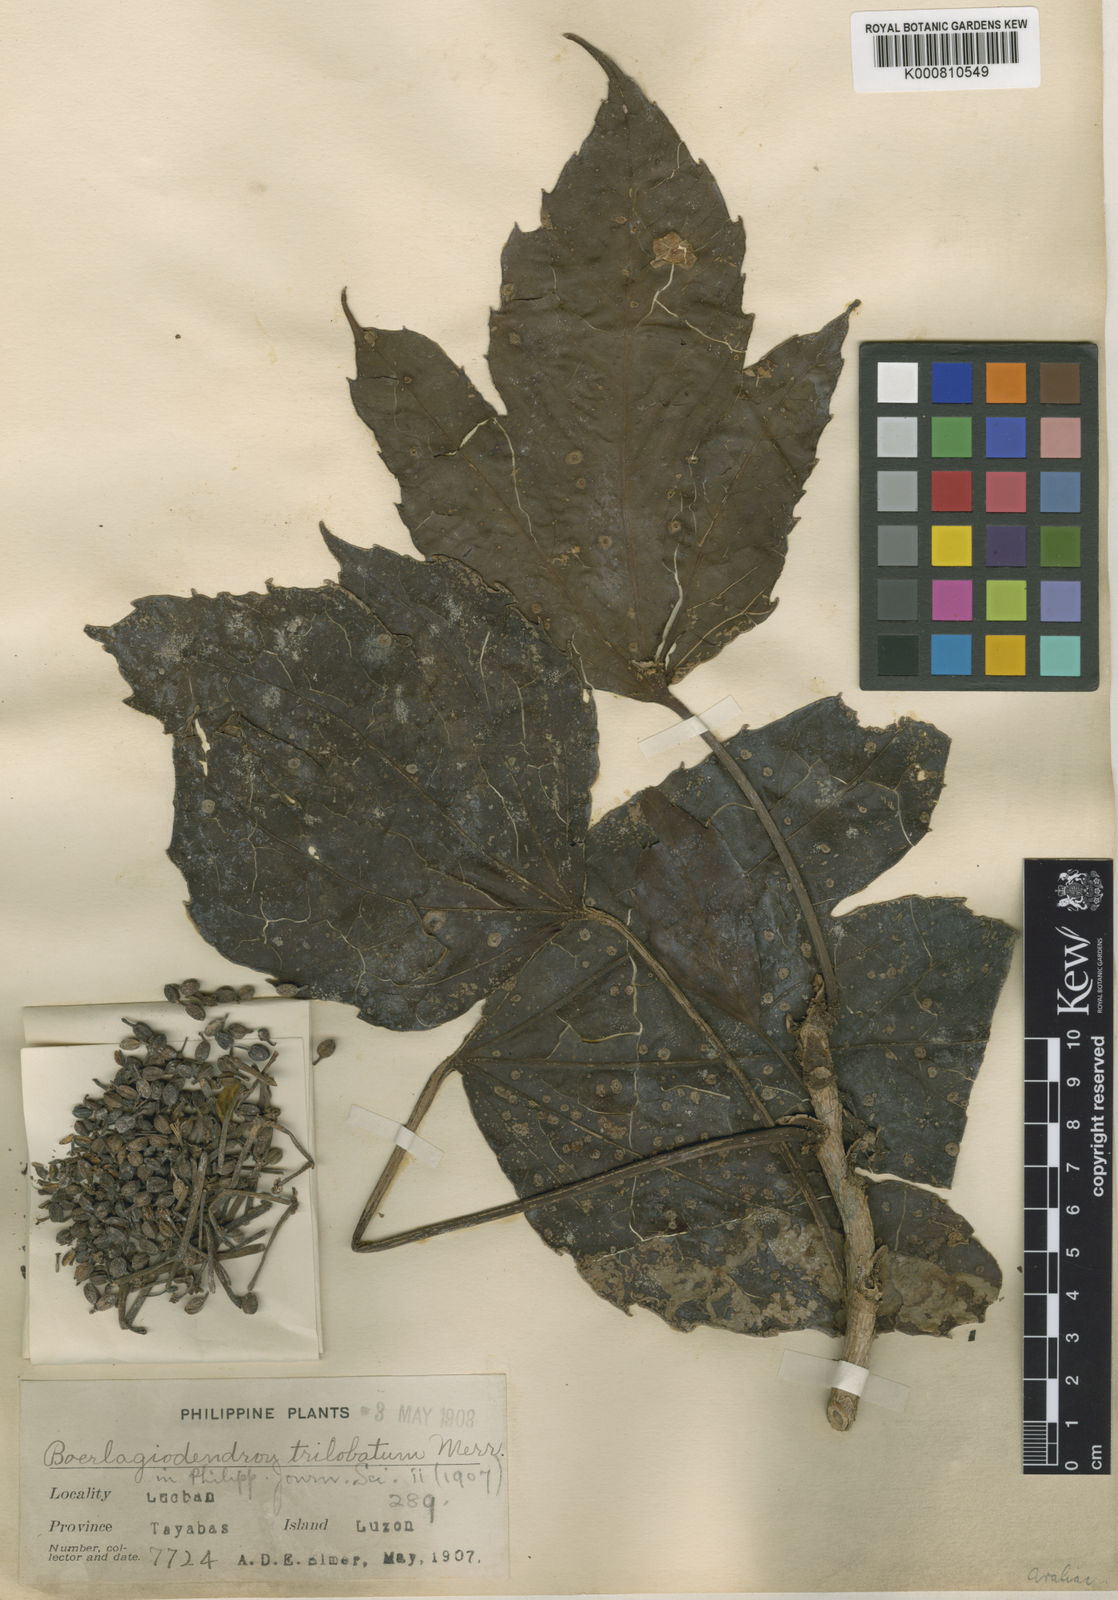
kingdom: Plantae
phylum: Tracheophyta
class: Magnoliopsida
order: Apiales
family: Araliaceae
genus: Osmoxylon
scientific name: Osmoxylon trilobatum
